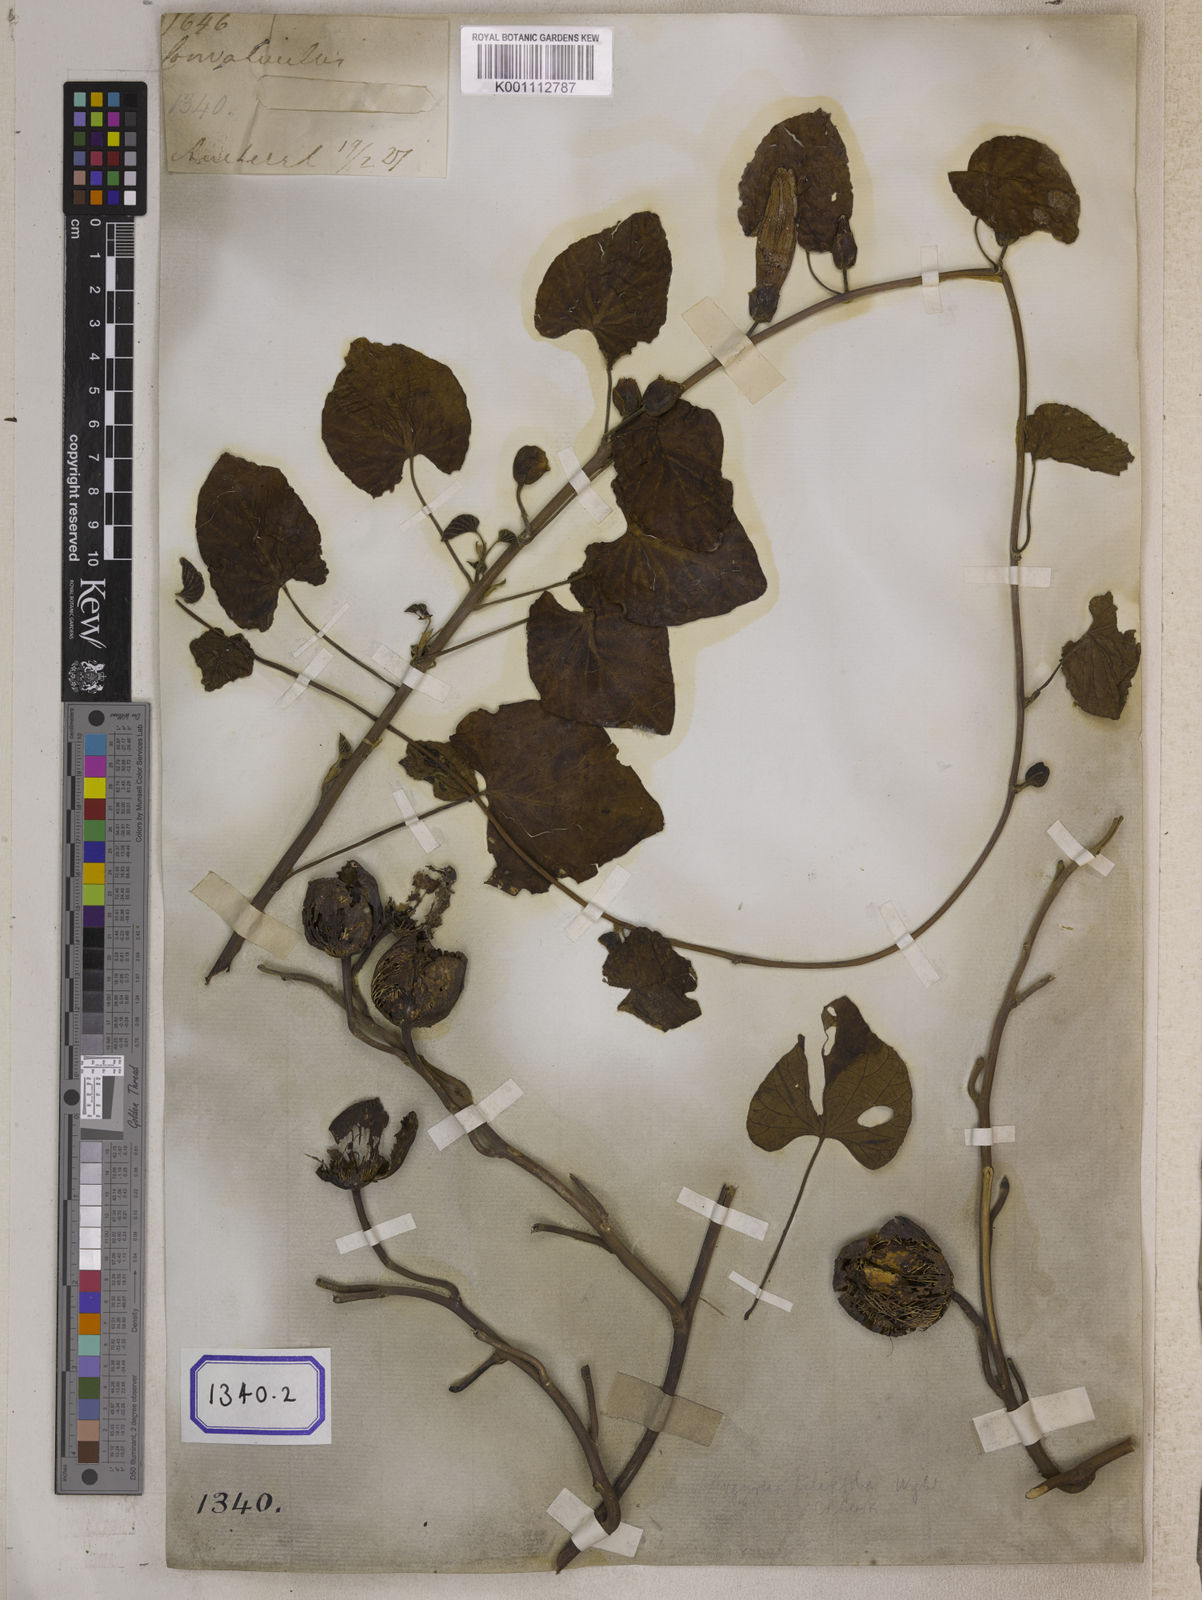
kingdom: Plantae
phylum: Tracheophyta
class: Magnoliopsida
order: Solanales
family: Convolvulaceae
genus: Stictocardia
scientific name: Stictocardia tiliifolia
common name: Spottedheart
